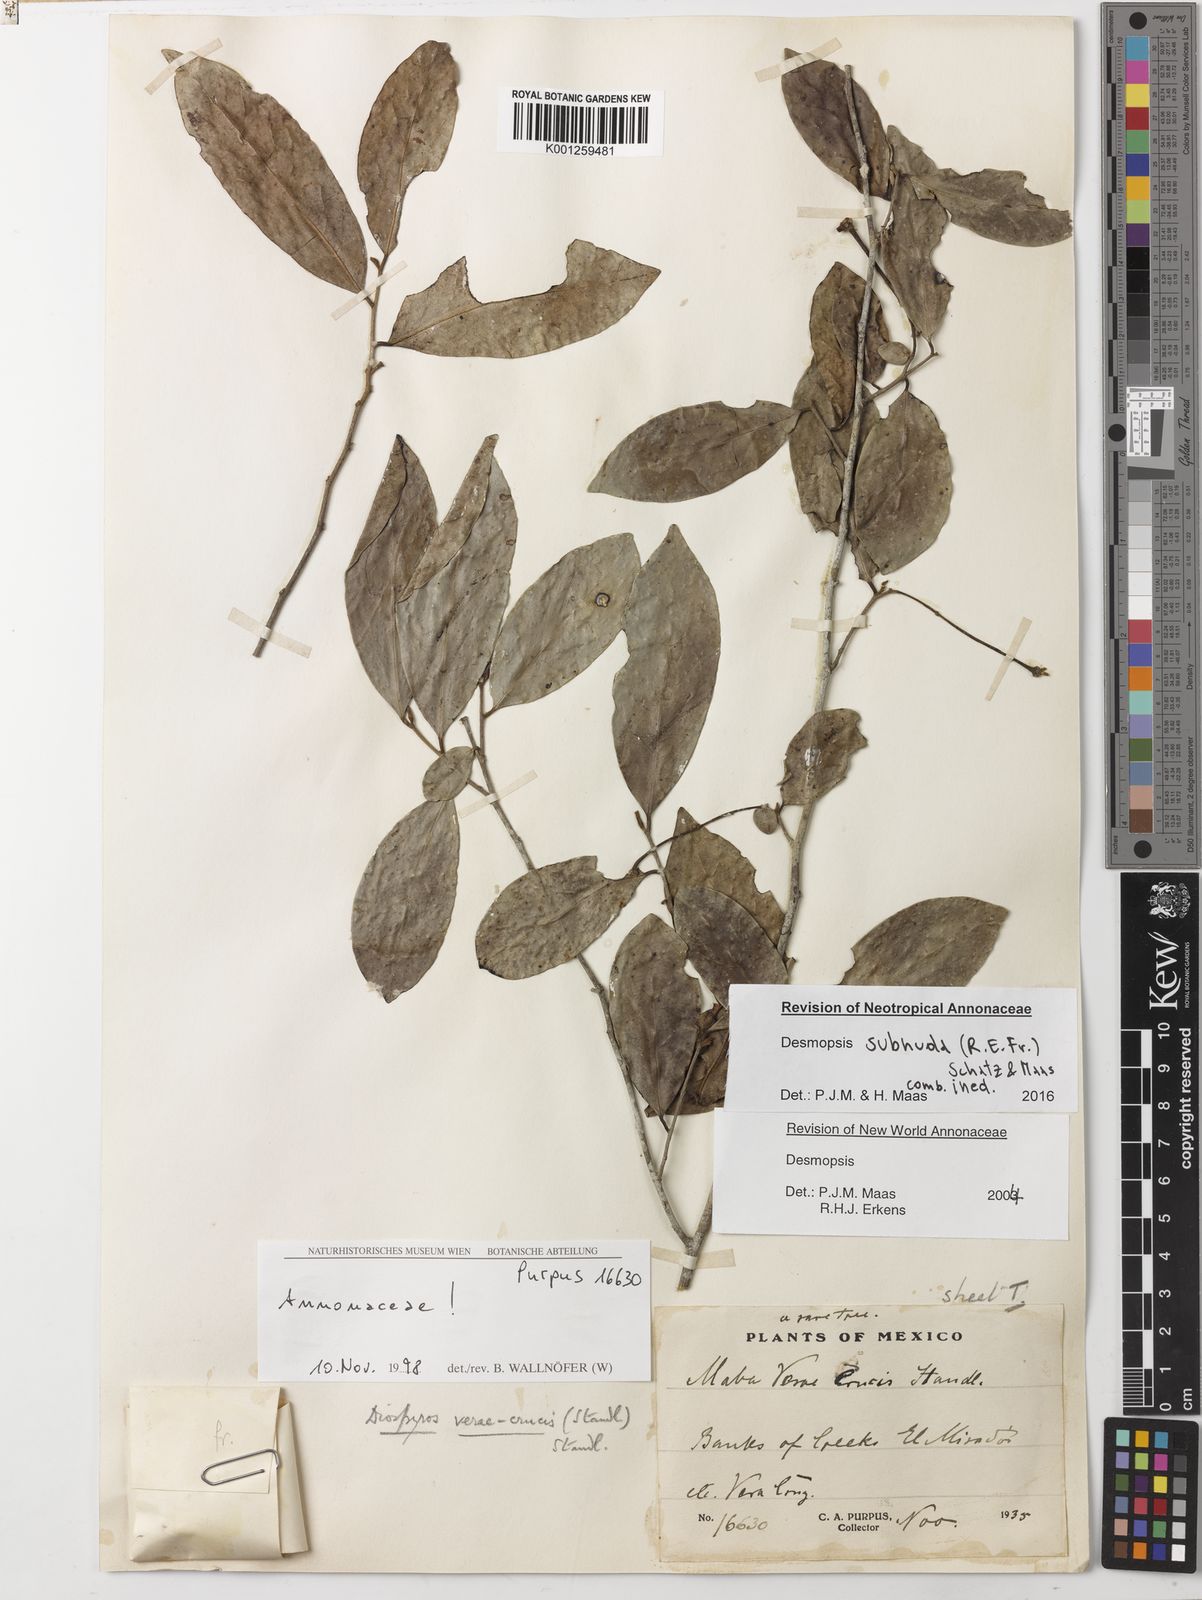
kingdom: Plantae
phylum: Tracheophyta
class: Magnoliopsida
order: Magnoliales
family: Annonaceae
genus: Desmopsis
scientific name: Desmopsis
